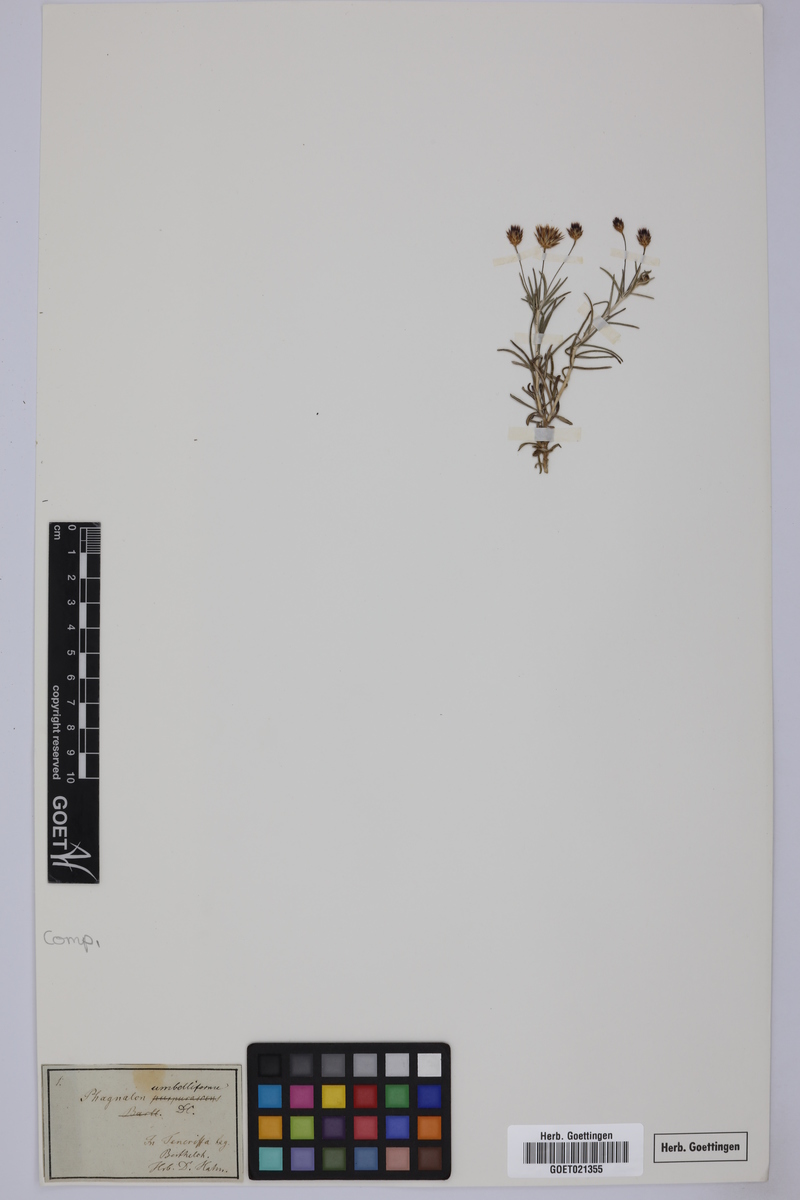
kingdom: Plantae
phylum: Tracheophyta
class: Magnoliopsida
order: Asterales
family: Asteraceae
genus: Phagnalon
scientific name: Phagnalon umbelliforme
